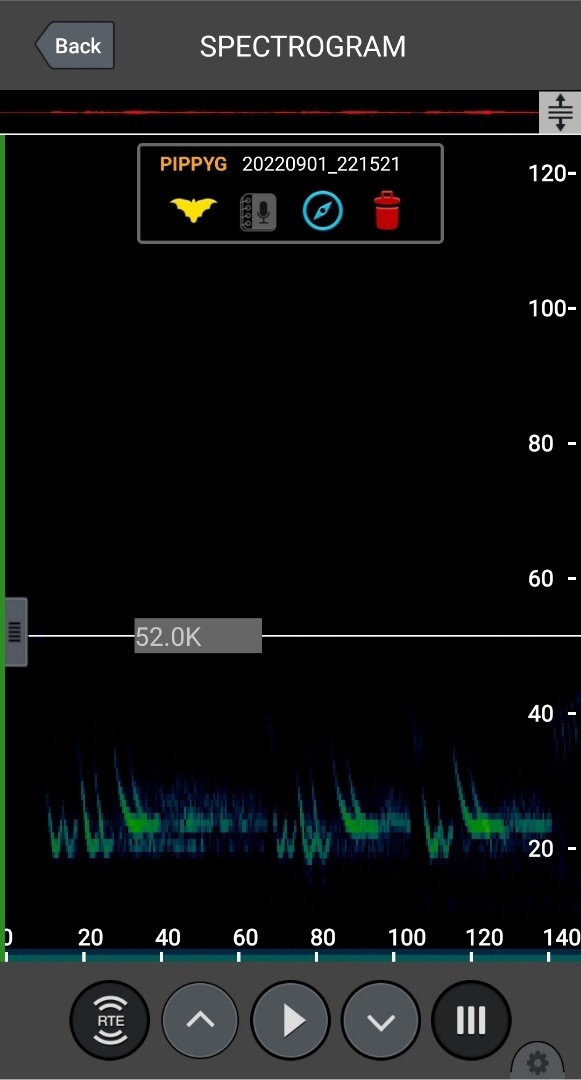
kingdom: Animalia
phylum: Chordata
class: Mammalia
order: Chiroptera
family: Vespertilionidae
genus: Pipistrellus
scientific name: Pipistrellus pygmaeus
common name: Dværgflagermus
